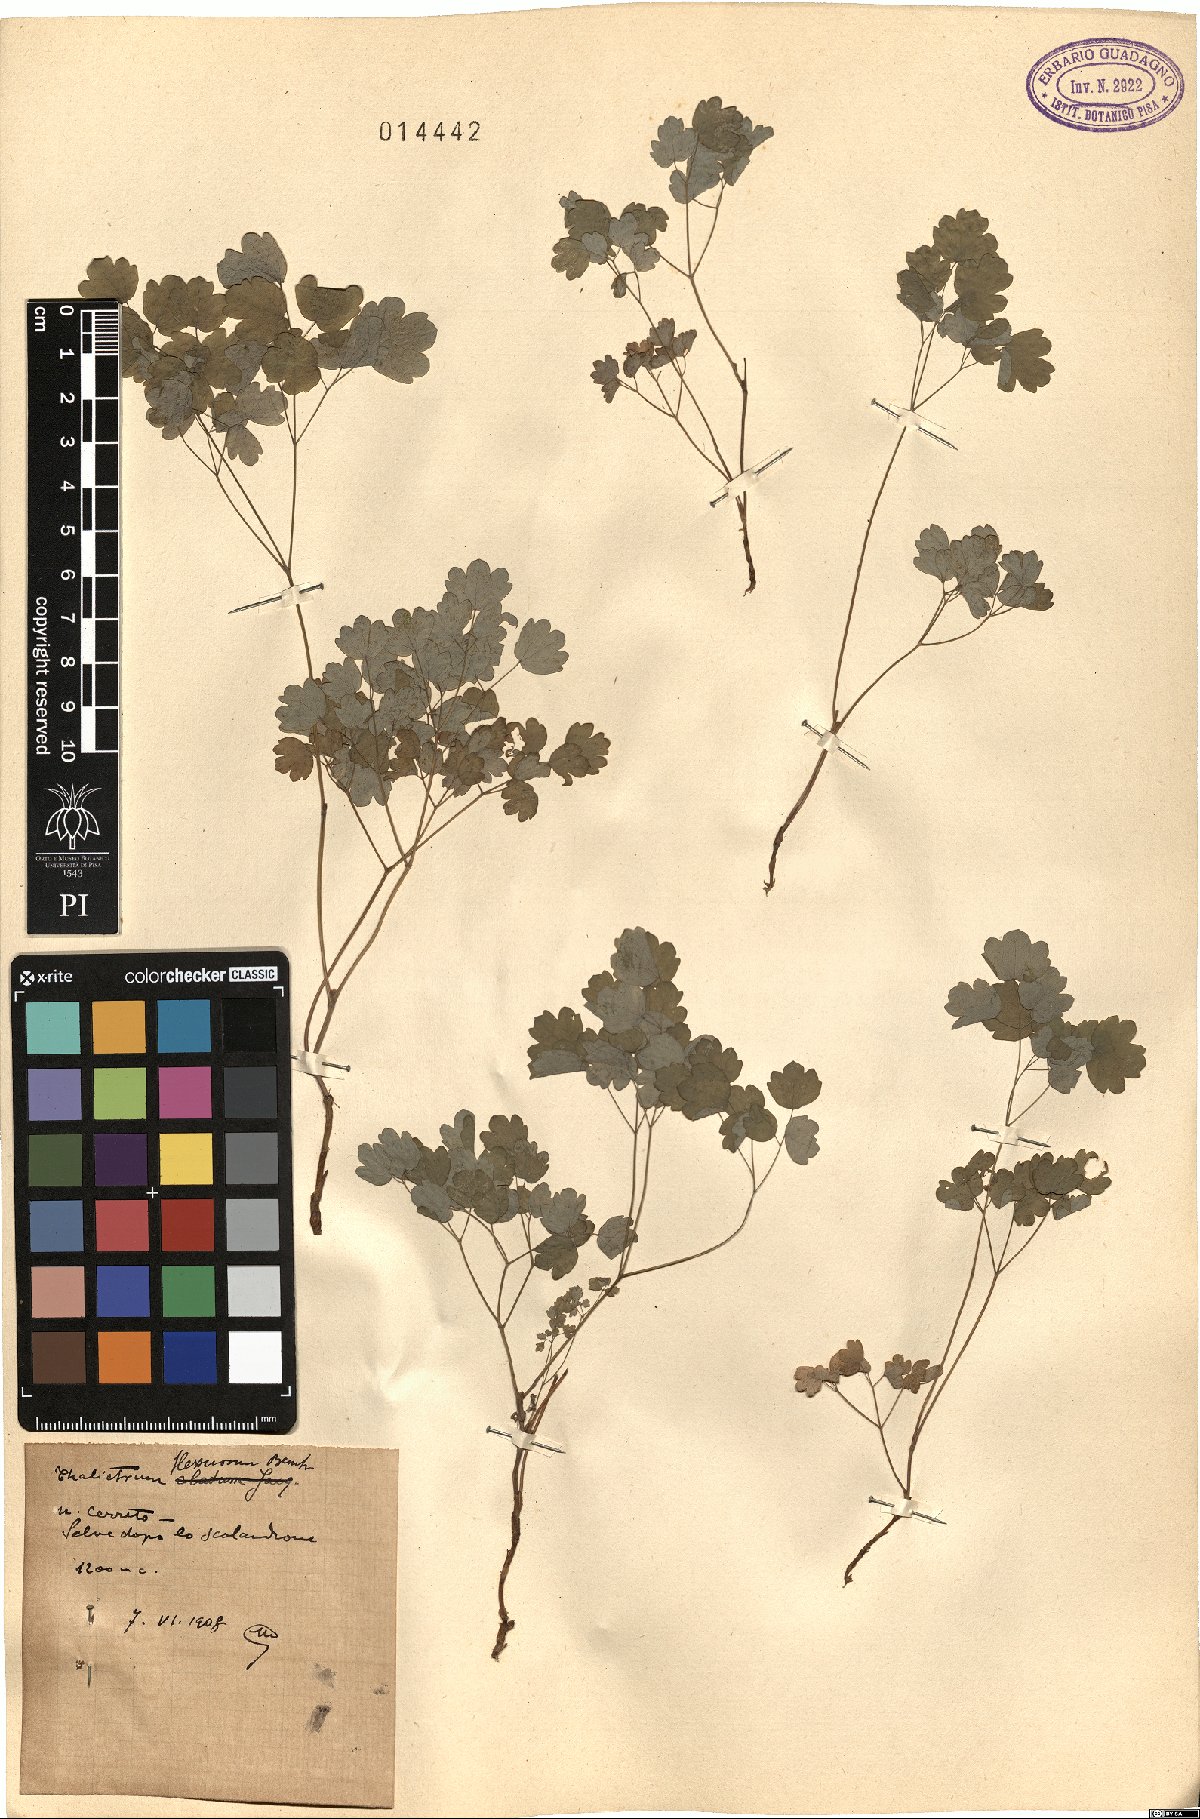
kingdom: Plantae
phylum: Tracheophyta
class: Magnoliopsida
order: Ranunculales
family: Ranunculaceae
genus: Thalictrum
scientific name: Thalictrum minus
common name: Lesser meadow-rue
